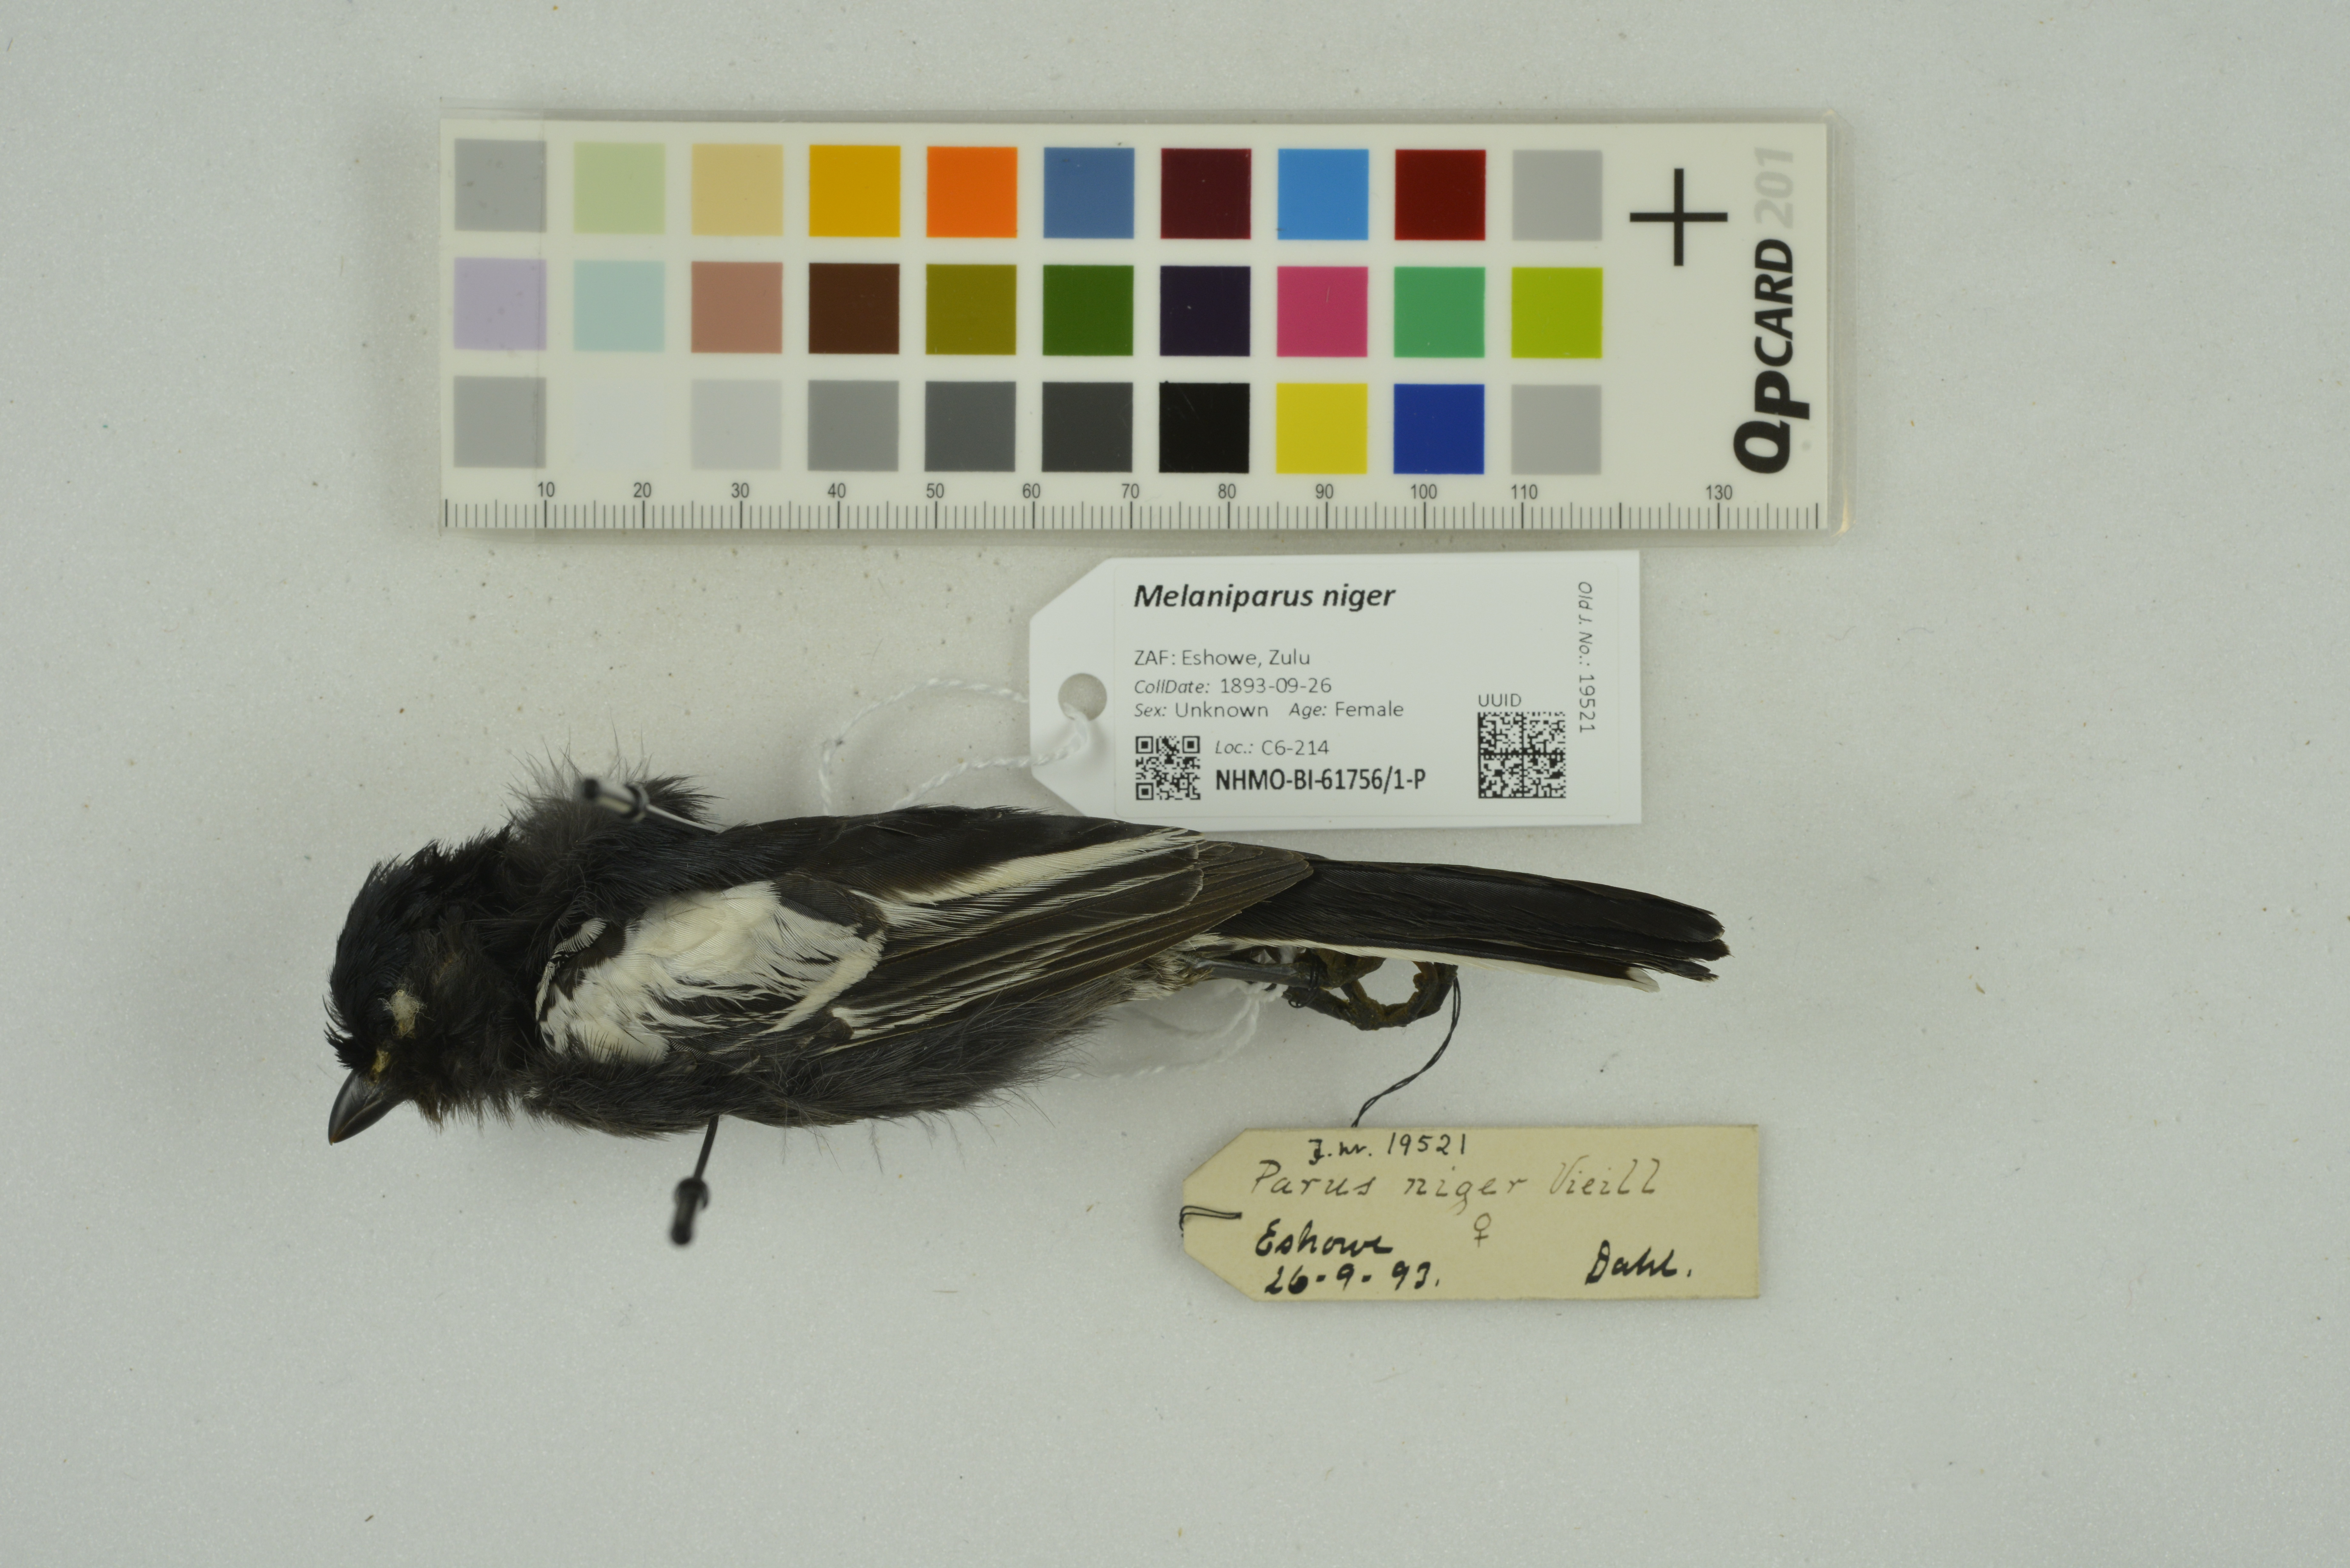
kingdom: Animalia
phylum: Chordata
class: Aves
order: Passeriformes
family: Paridae
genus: Parus
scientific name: Parus niger
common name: Southern black tit
